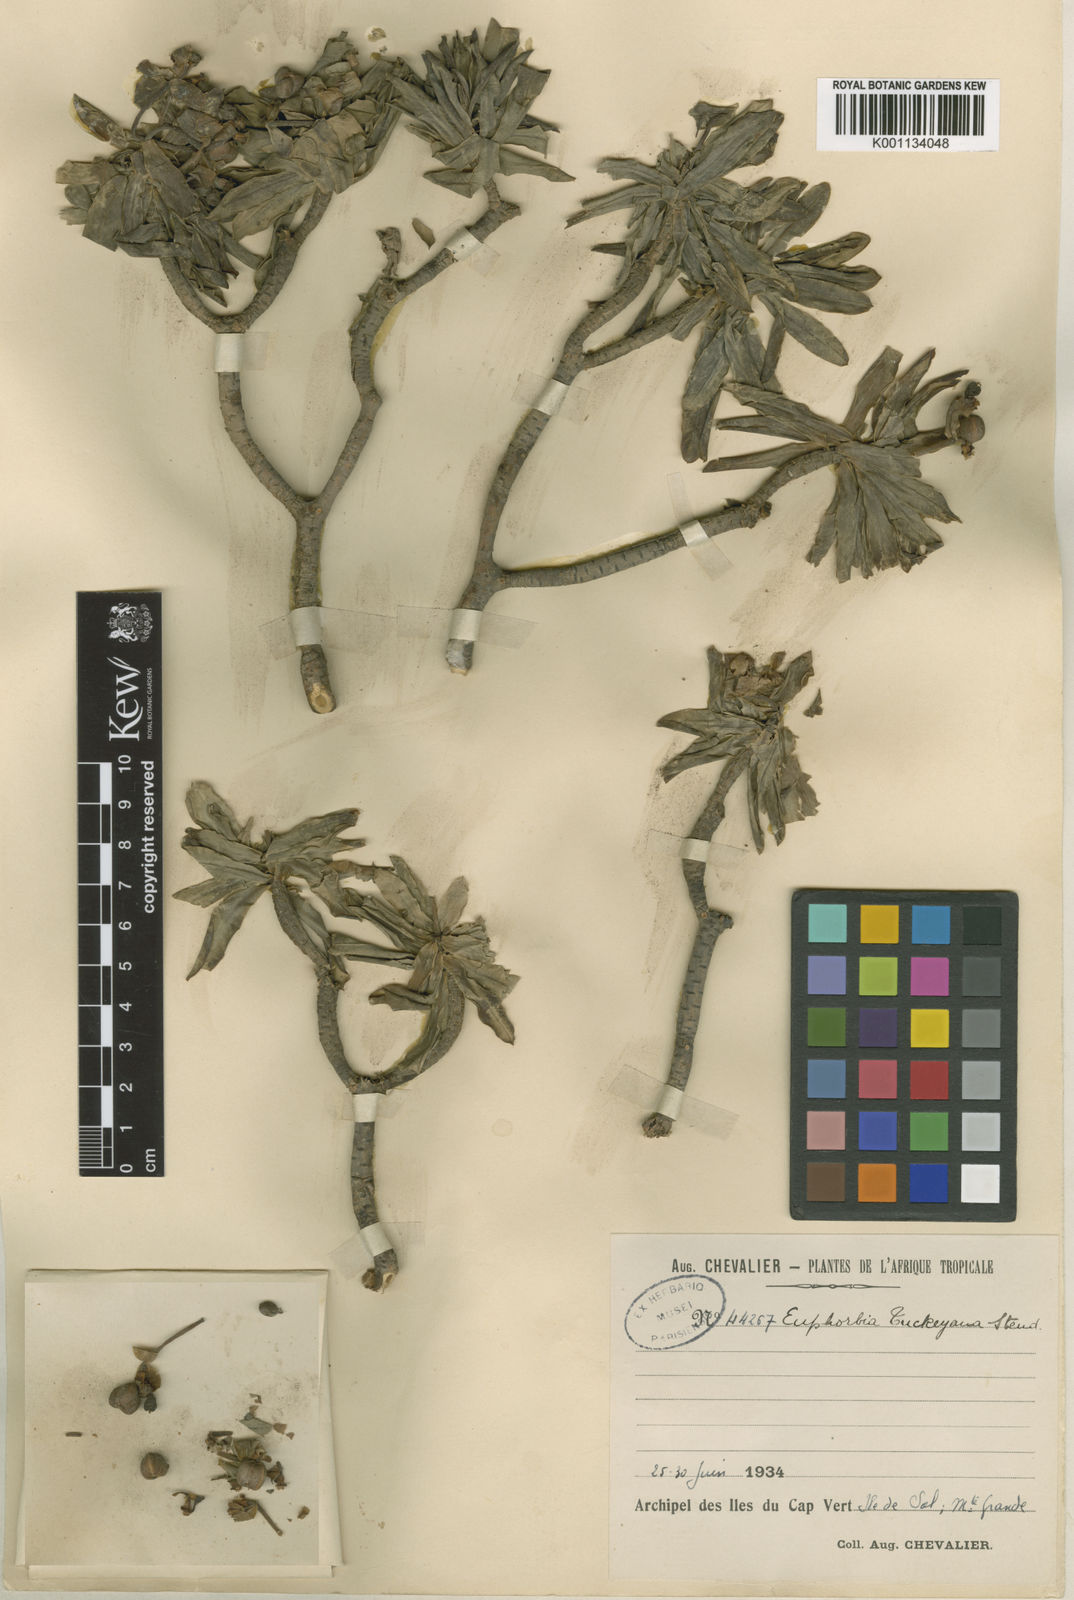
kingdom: Plantae
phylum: Tracheophyta
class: Magnoliopsida
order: Malpighiales
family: Euphorbiaceae
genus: Euphorbia
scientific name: Euphorbia
